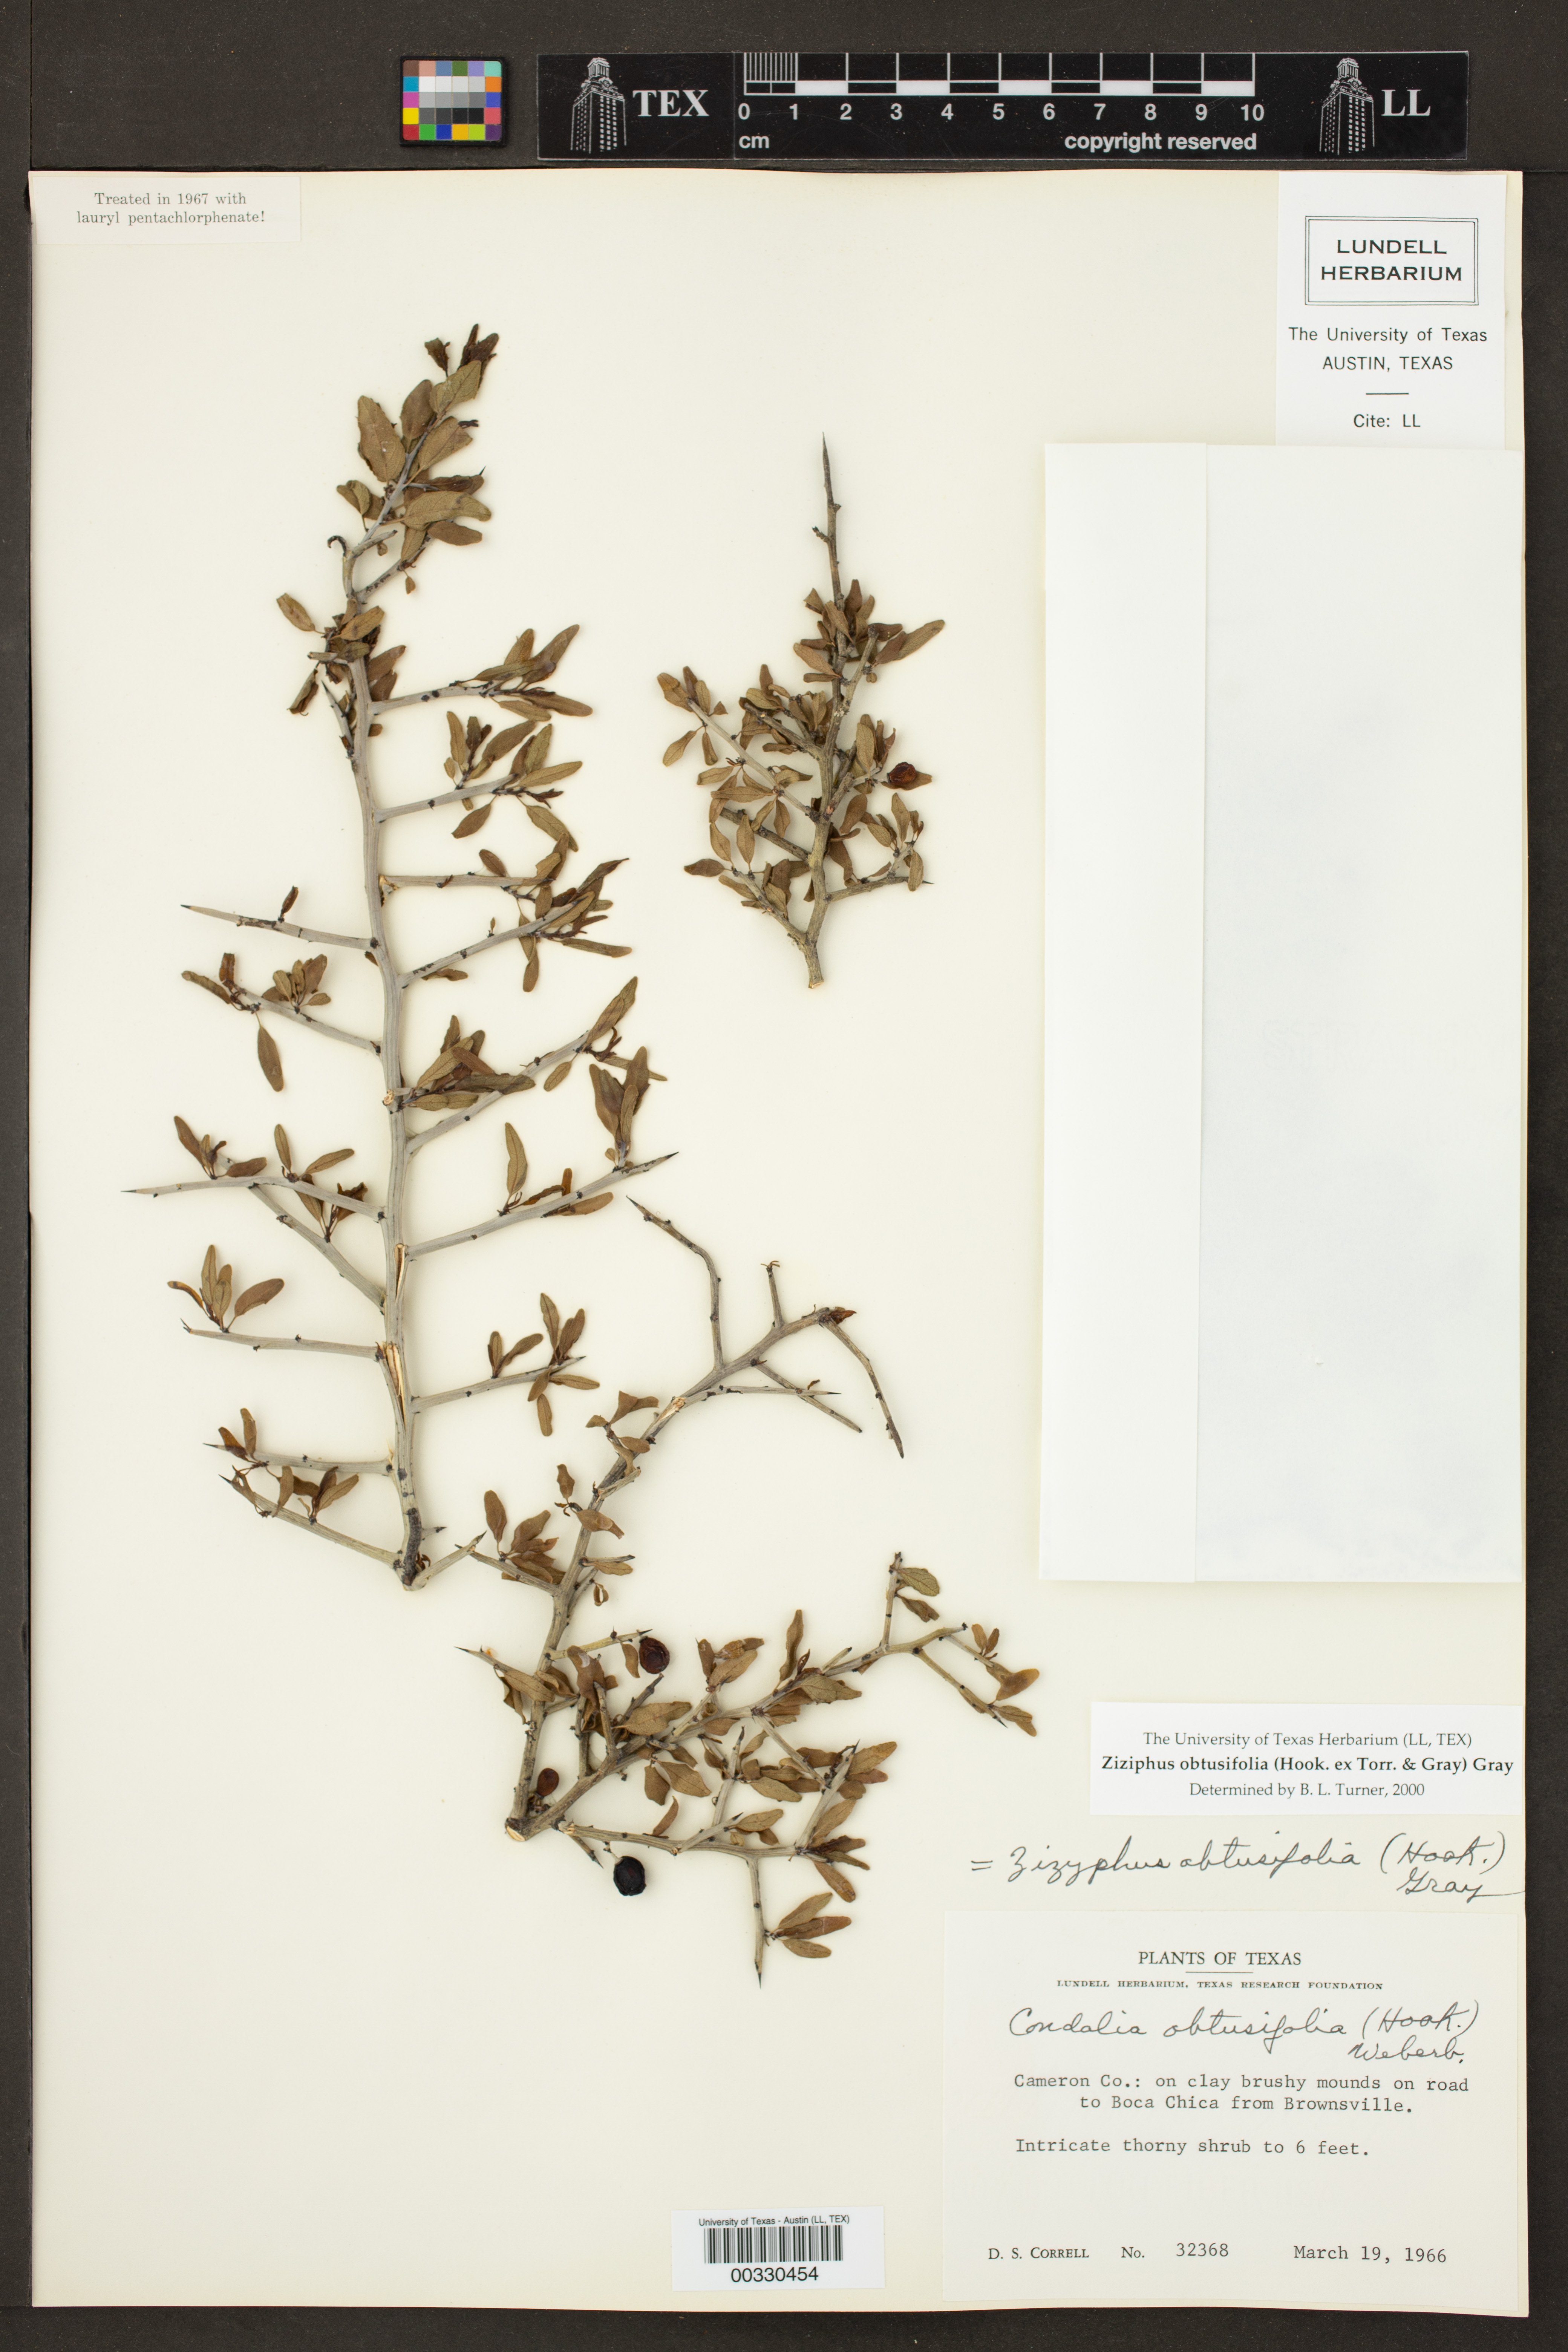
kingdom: Plantae
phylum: Tracheophyta
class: Magnoliopsida
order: Rosales
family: Rhamnaceae
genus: Sarcomphalus
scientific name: Sarcomphalus obtusifolius
